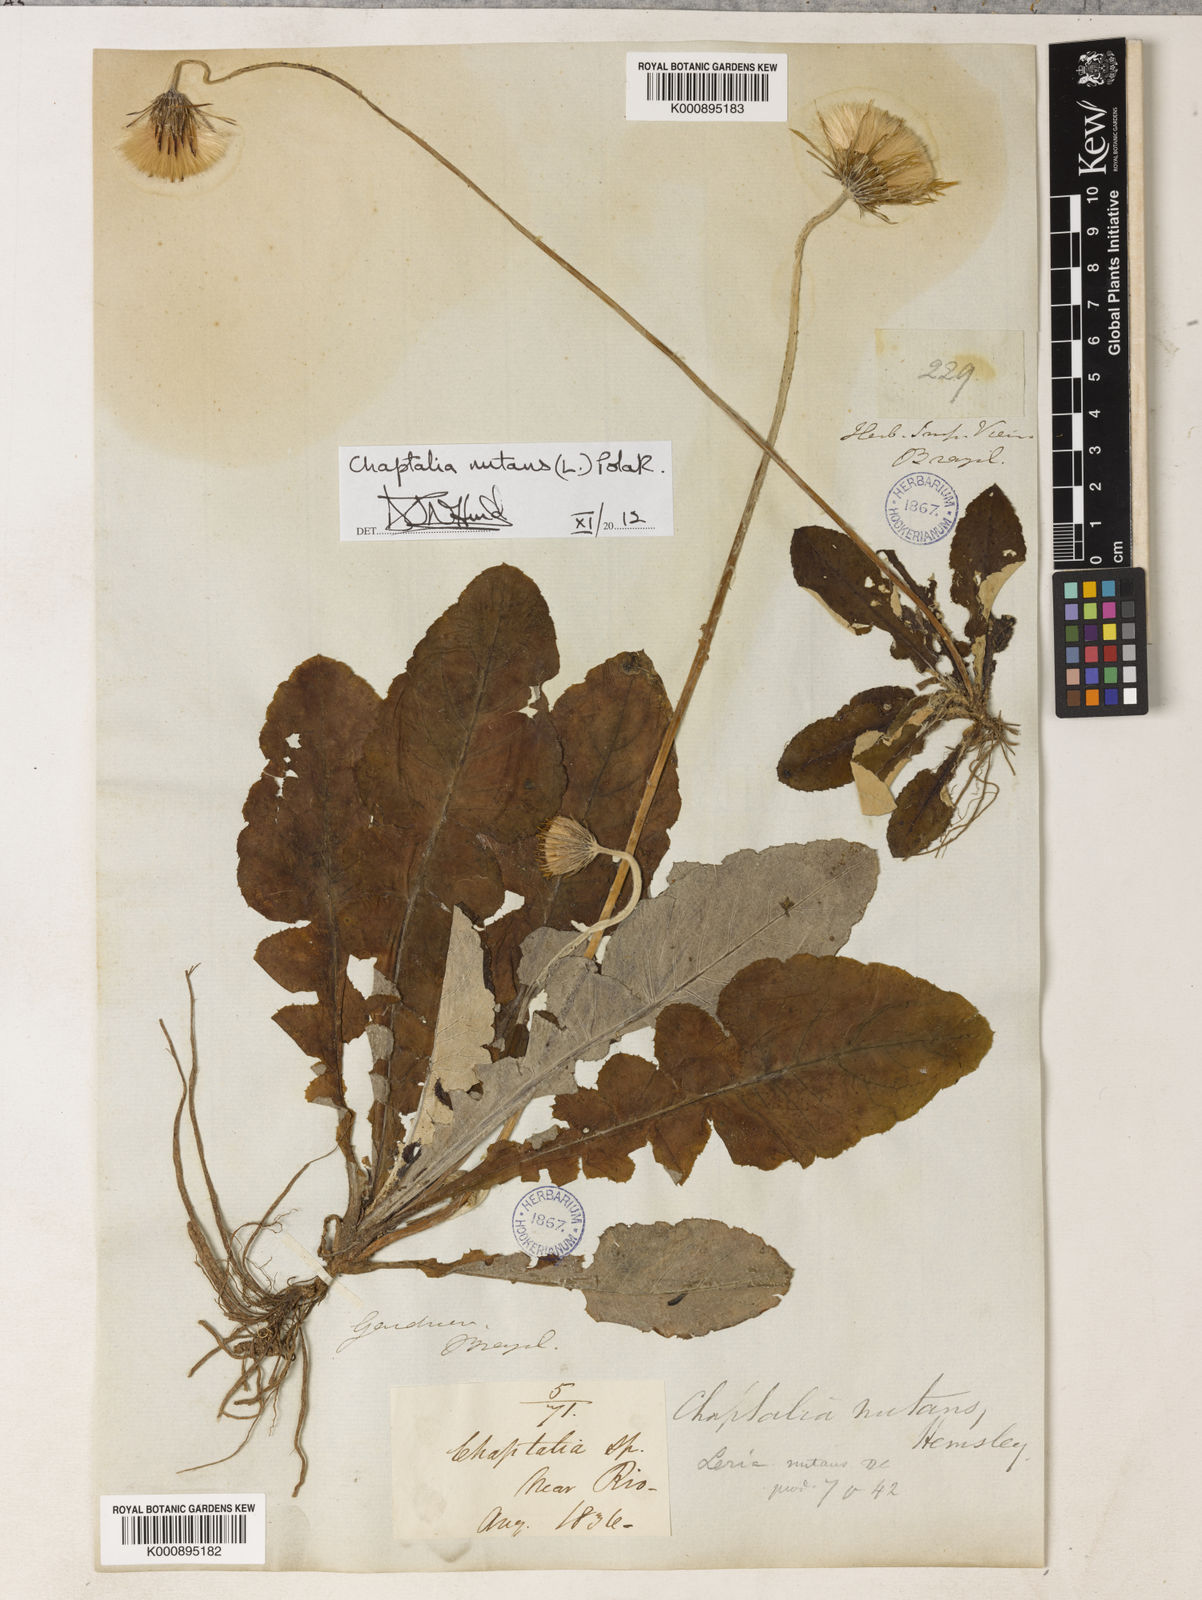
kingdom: Plantae
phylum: Tracheophyta
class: Magnoliopsida
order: Asterales
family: Asteraceae
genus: Chaptalia
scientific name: Chaptalia nutans
